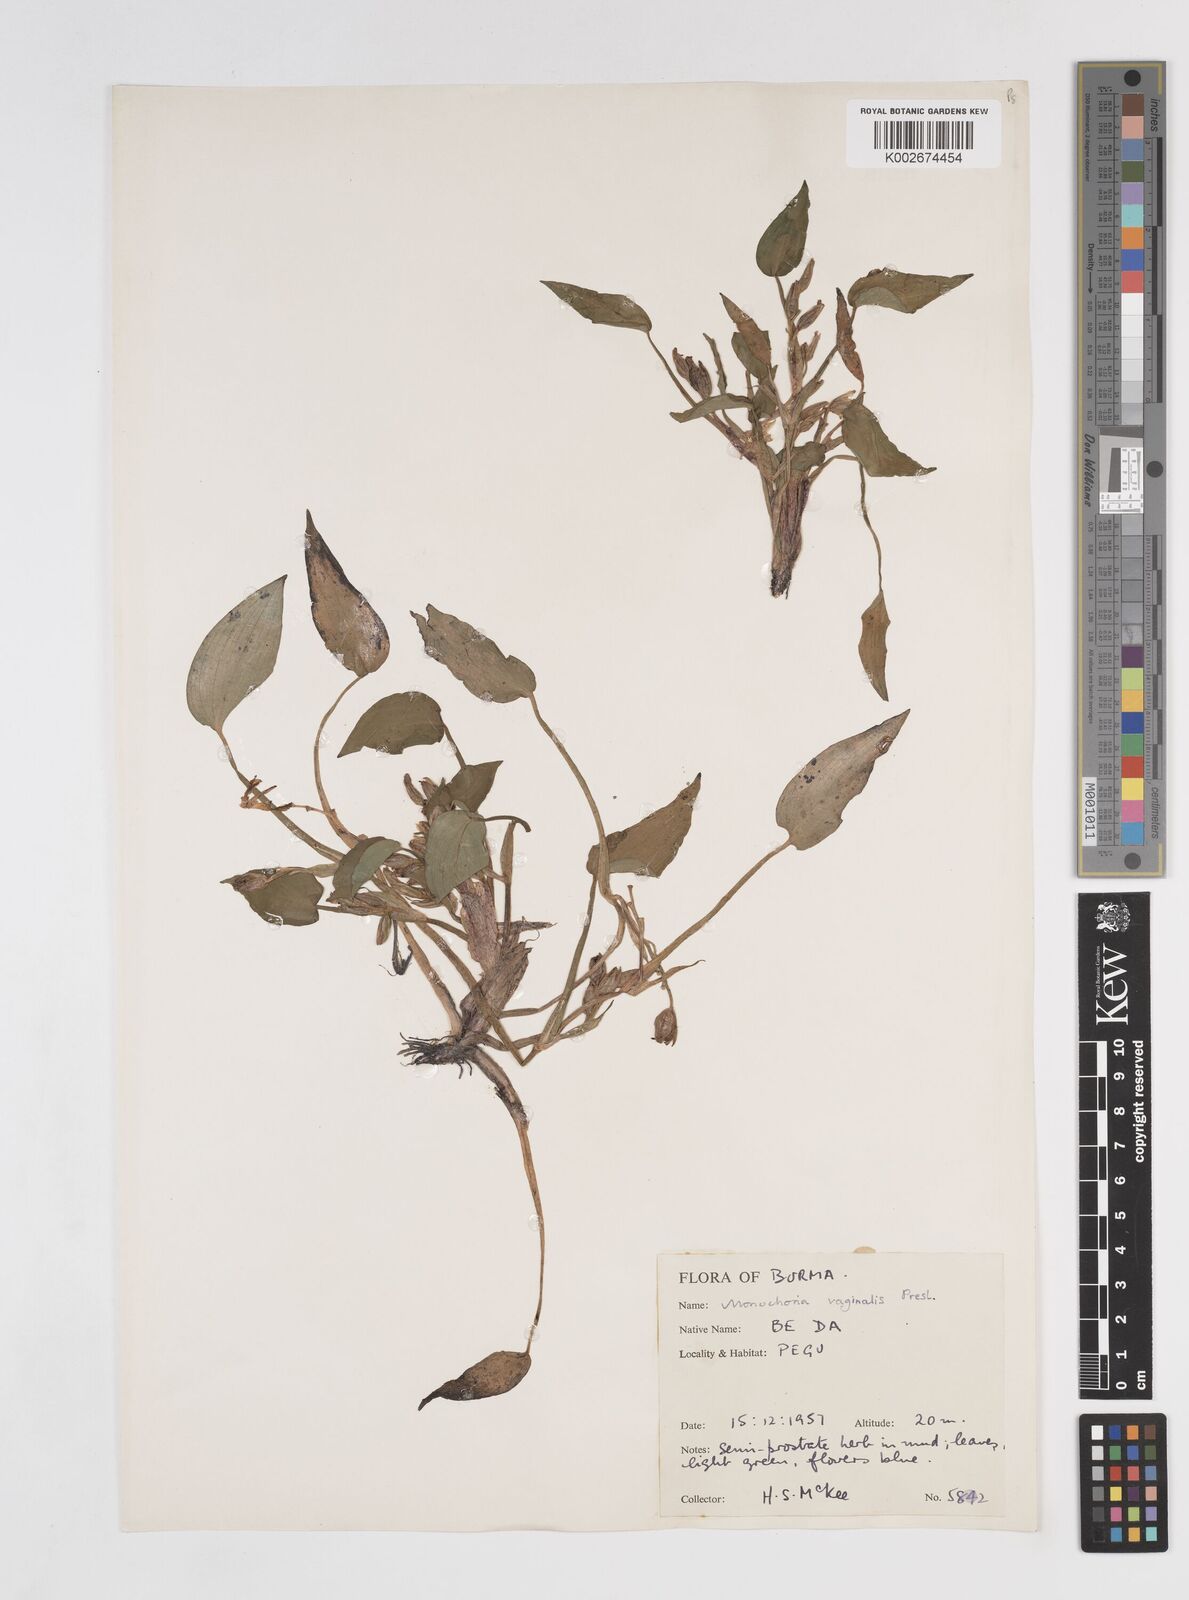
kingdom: Plantae
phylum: Tracheophyta
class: Liliopsida
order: Commelinales
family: Pontederiaceae
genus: Pontederia
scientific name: Pontederia vaginalis
